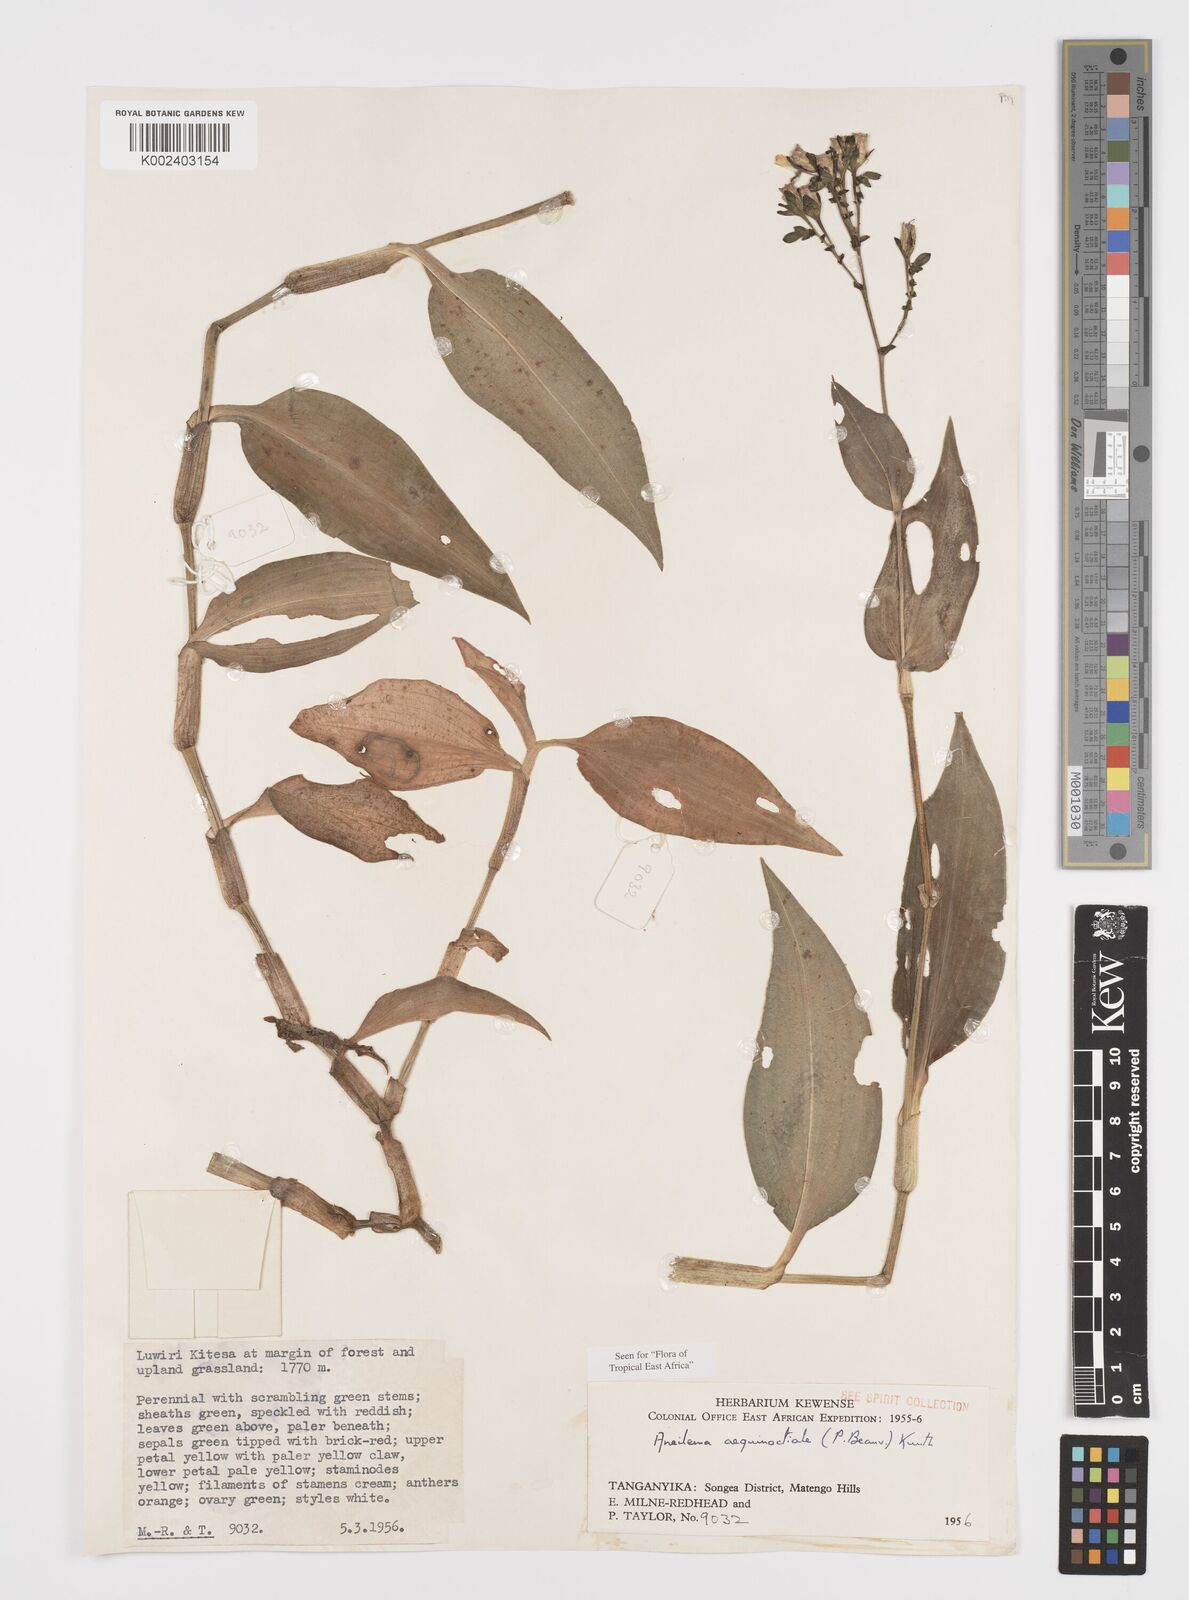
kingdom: Plantae
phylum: Tracheophyta
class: Liliopsida
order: Commelinales
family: Commelinaceae
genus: Aneilema
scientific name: Aneilema aequinoctiale
